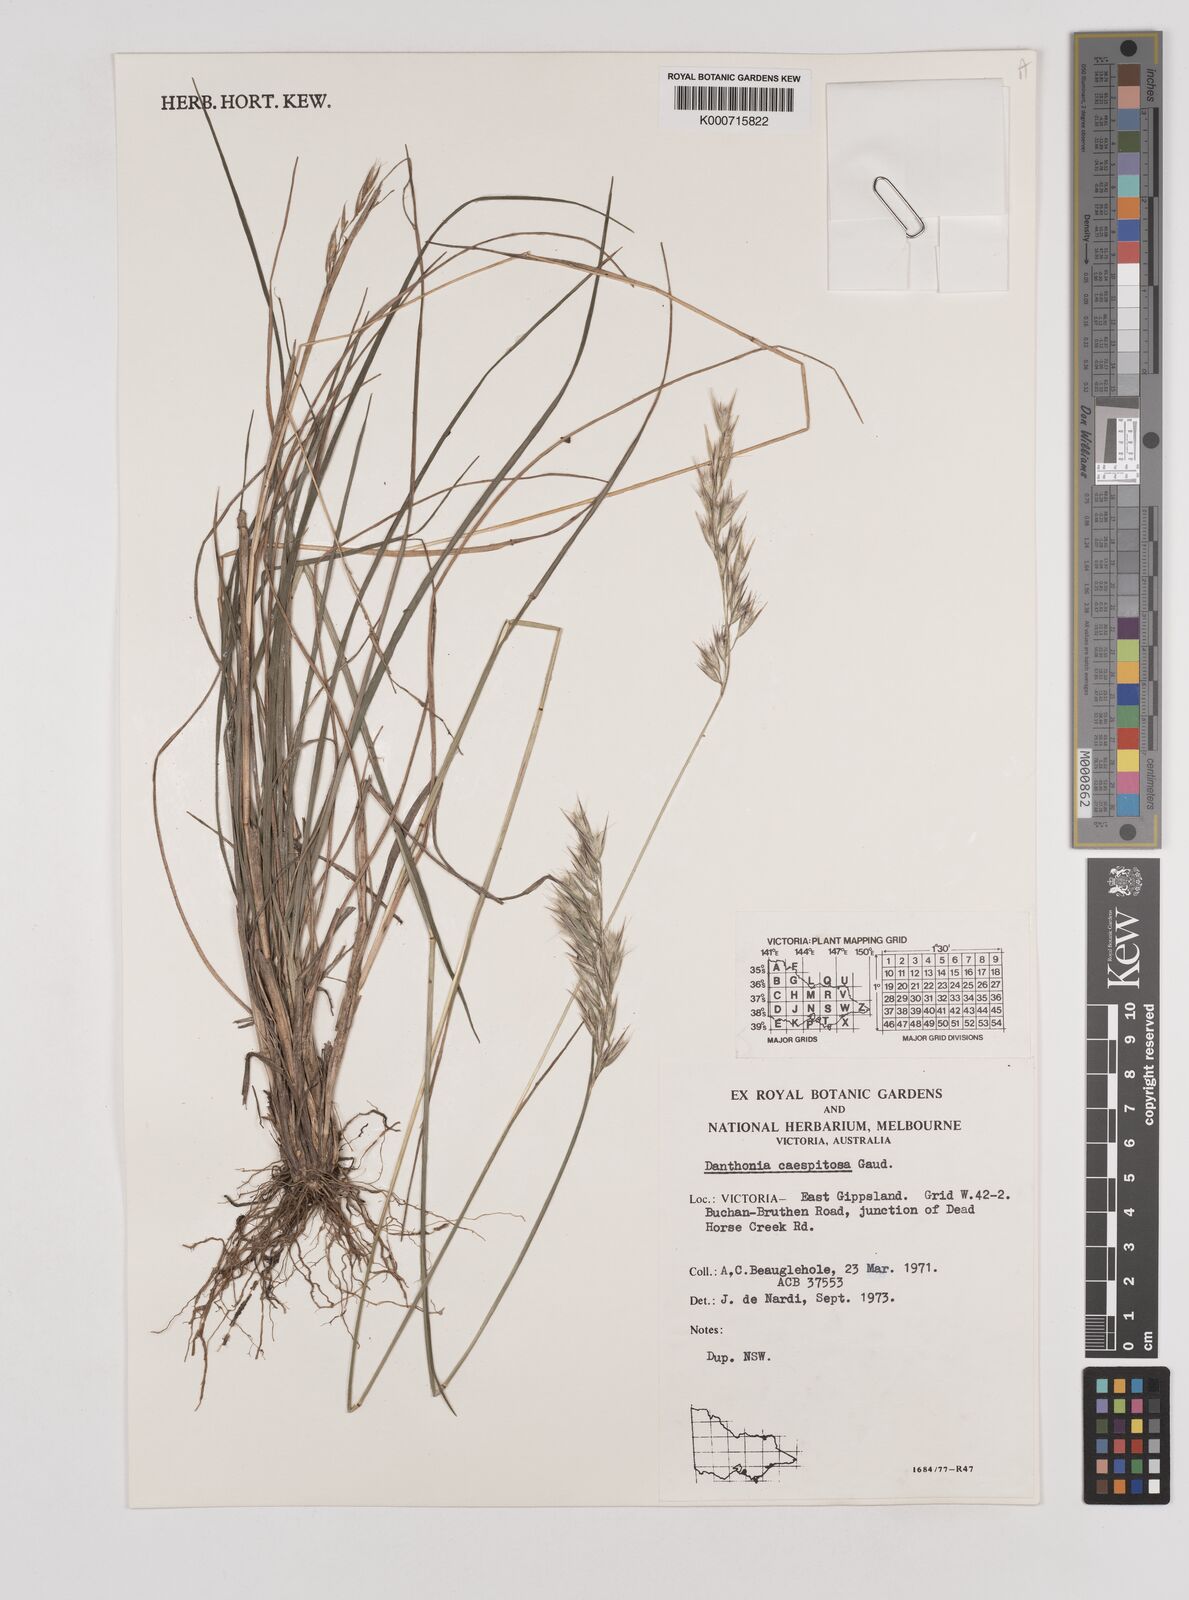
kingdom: Plantae
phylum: Tracheophyta
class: Liliopsida
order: Poales
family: Poaceae
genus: Rytidosperma
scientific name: Rytidosperma caespitosum
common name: Tufted wallaby grass
